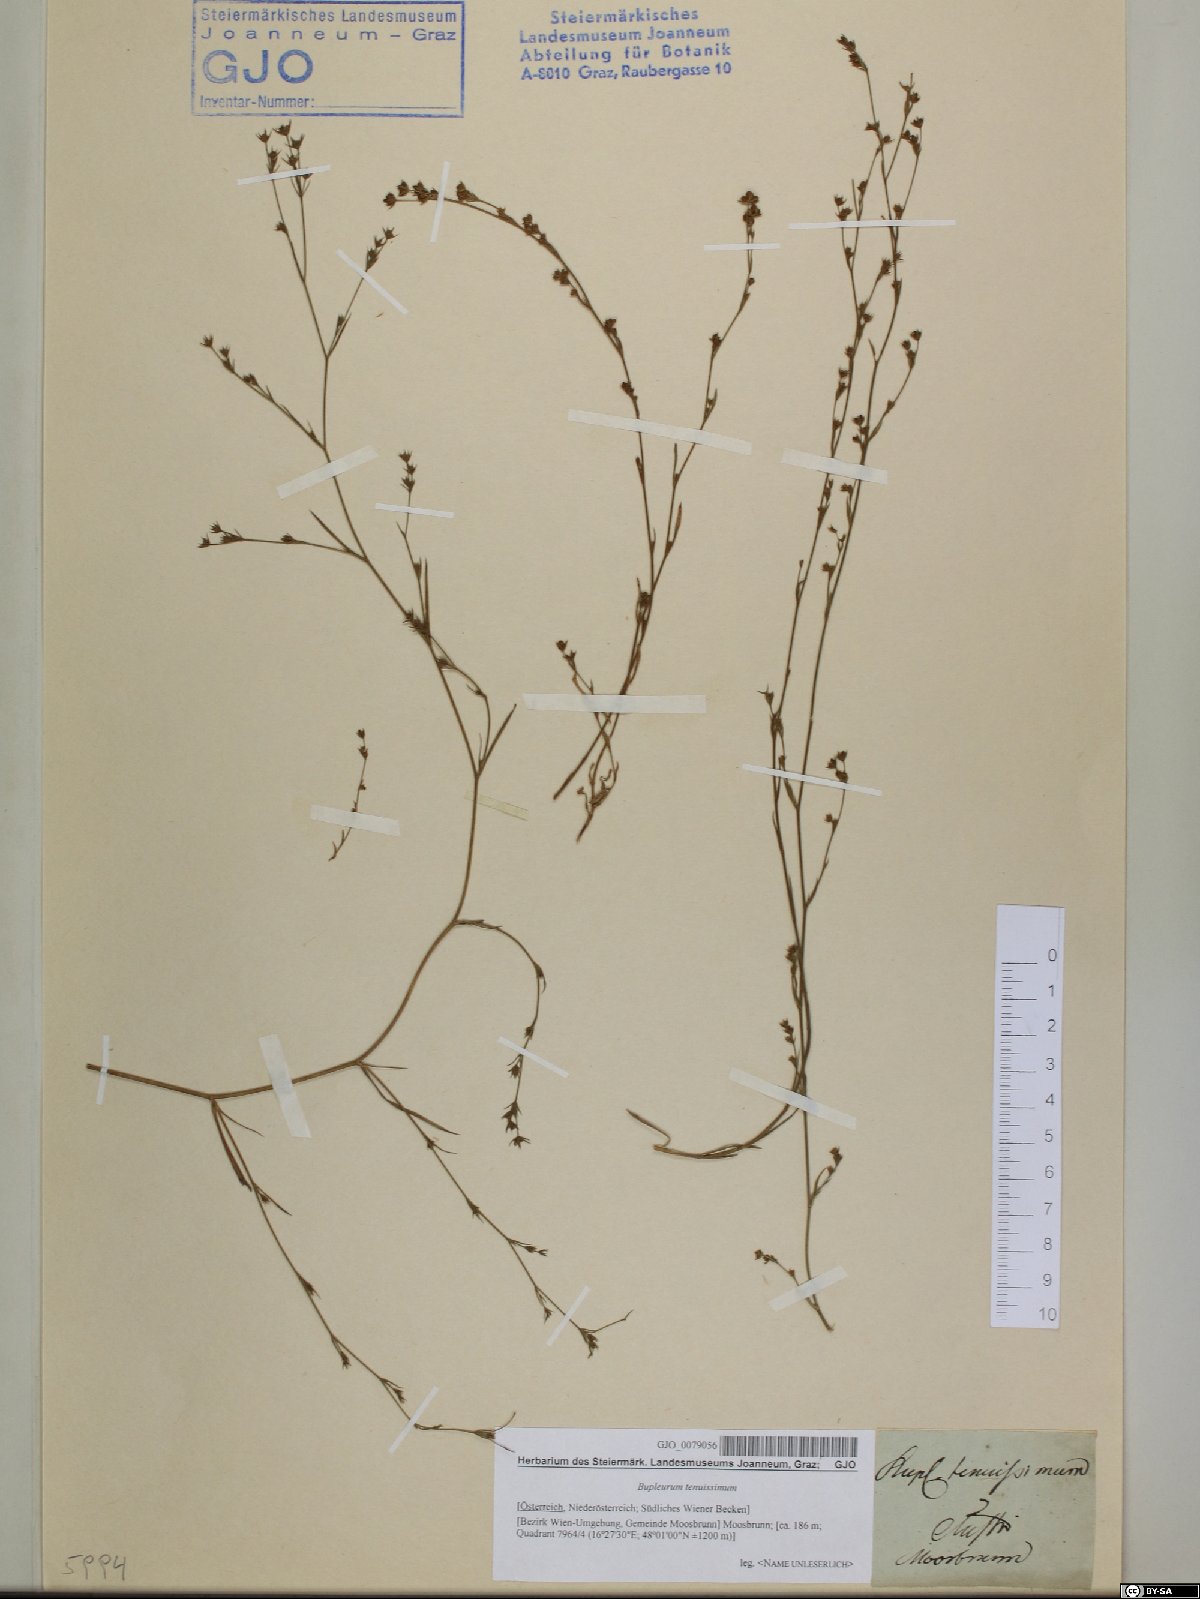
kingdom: Plantae
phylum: Tracheophyta
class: Magnoliopsida
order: Apiales
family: Apiaceae
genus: Bupleurum
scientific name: Bupleurum tenuissimum
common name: Slender hare's-ear
